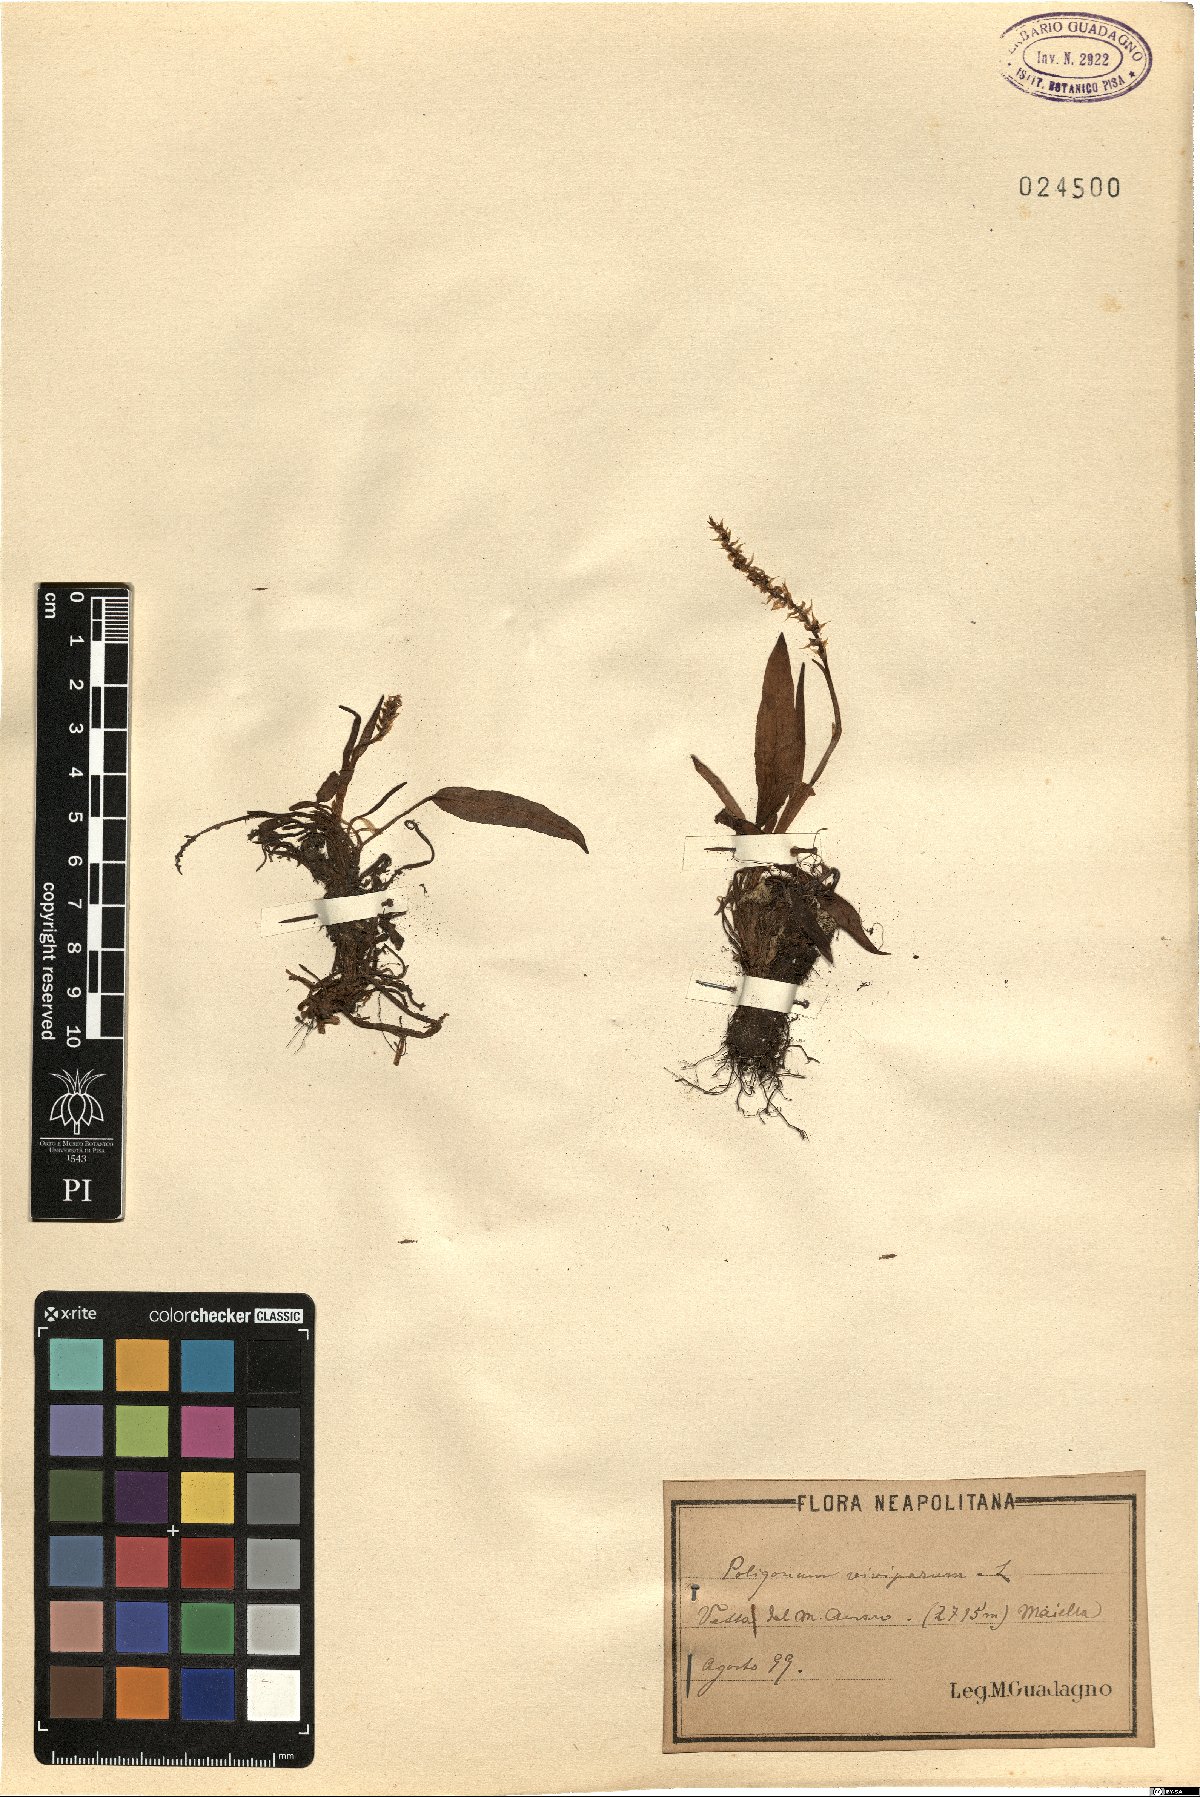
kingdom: Plantae
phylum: Tracheophyta
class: Magnoliopsida
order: Caryophyllales
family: Polygonaceae
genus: Bistorta
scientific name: Bistorta vivipara
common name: Alpine bistort
